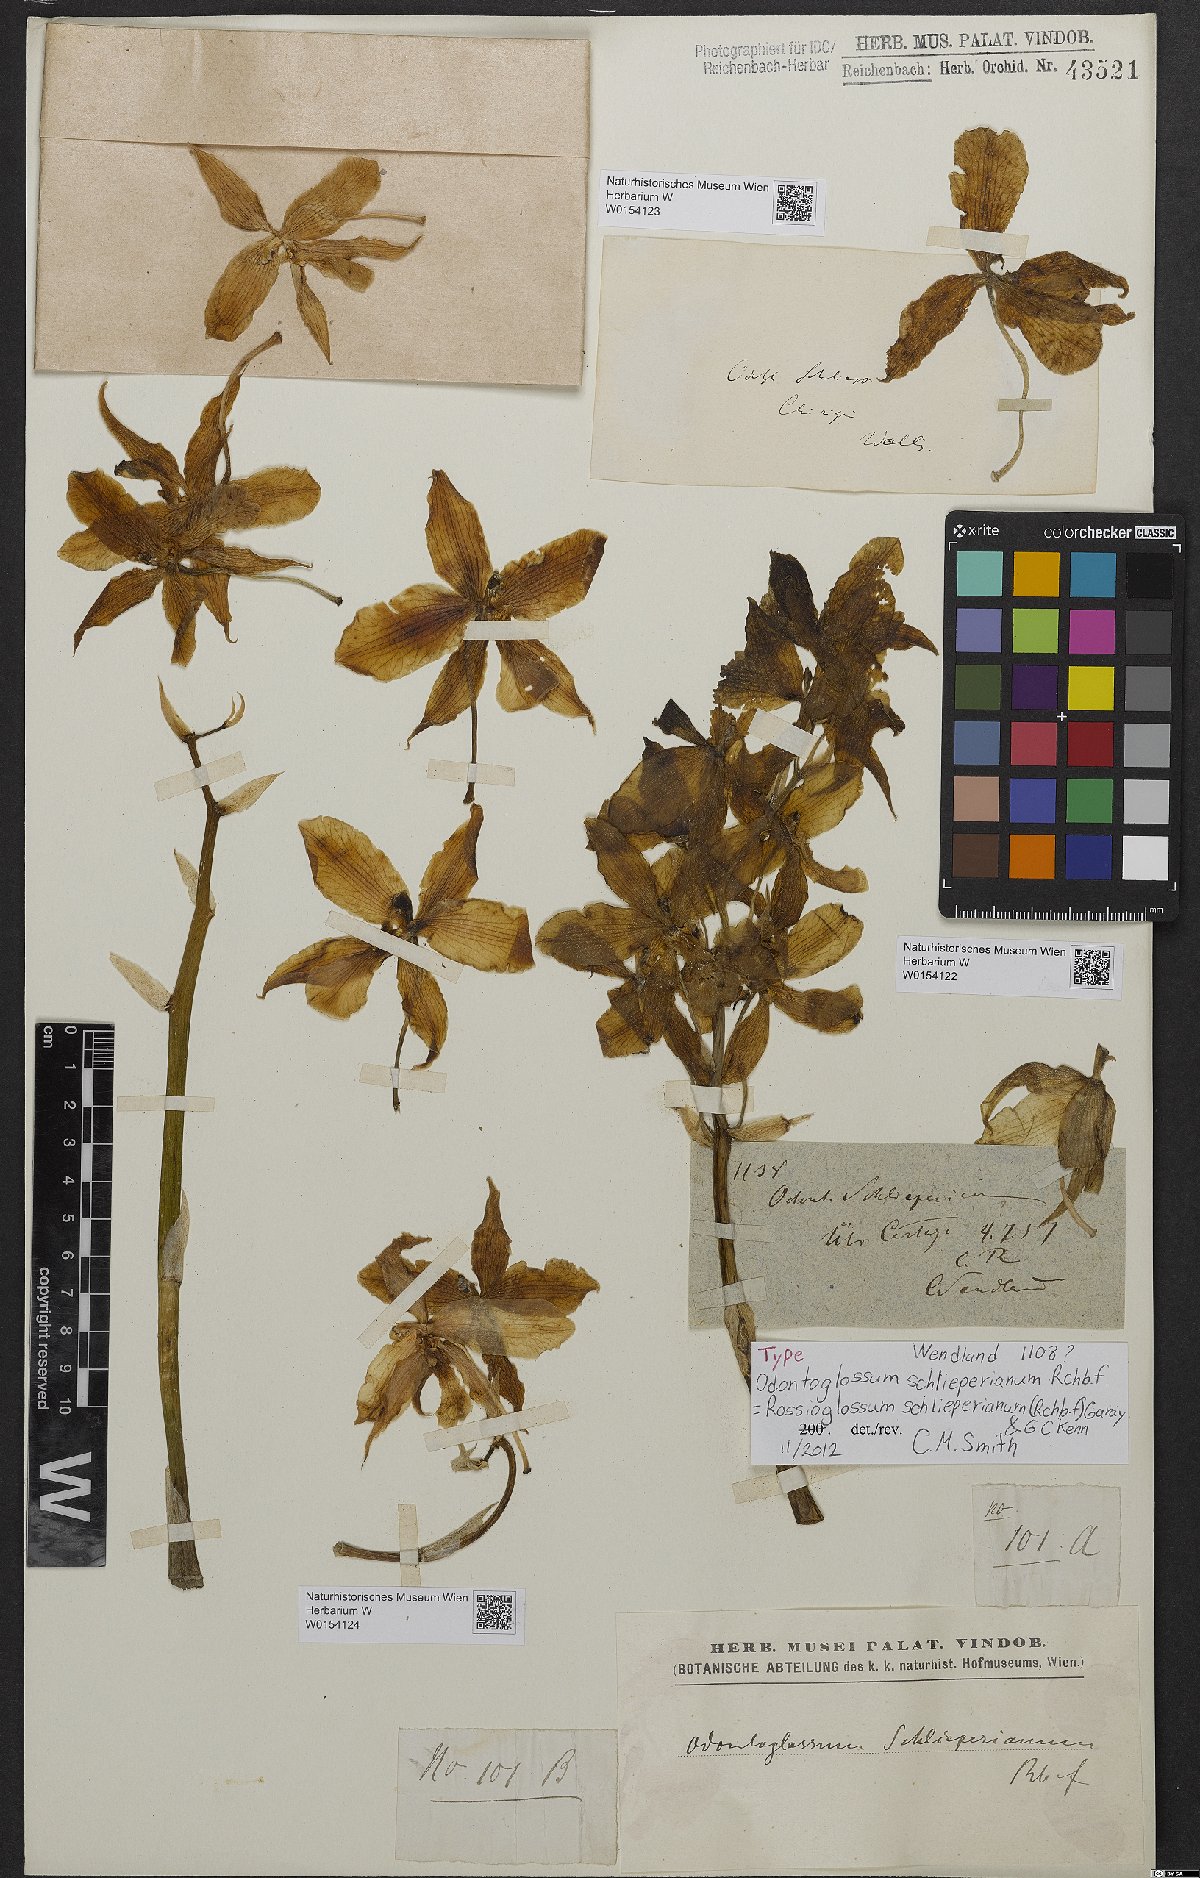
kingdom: Plantae
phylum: Tracheophyta
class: Liliopsida
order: Asparagales
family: Orchidaceae
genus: Rossioglossum
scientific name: Rossioglossum schlieperianum
